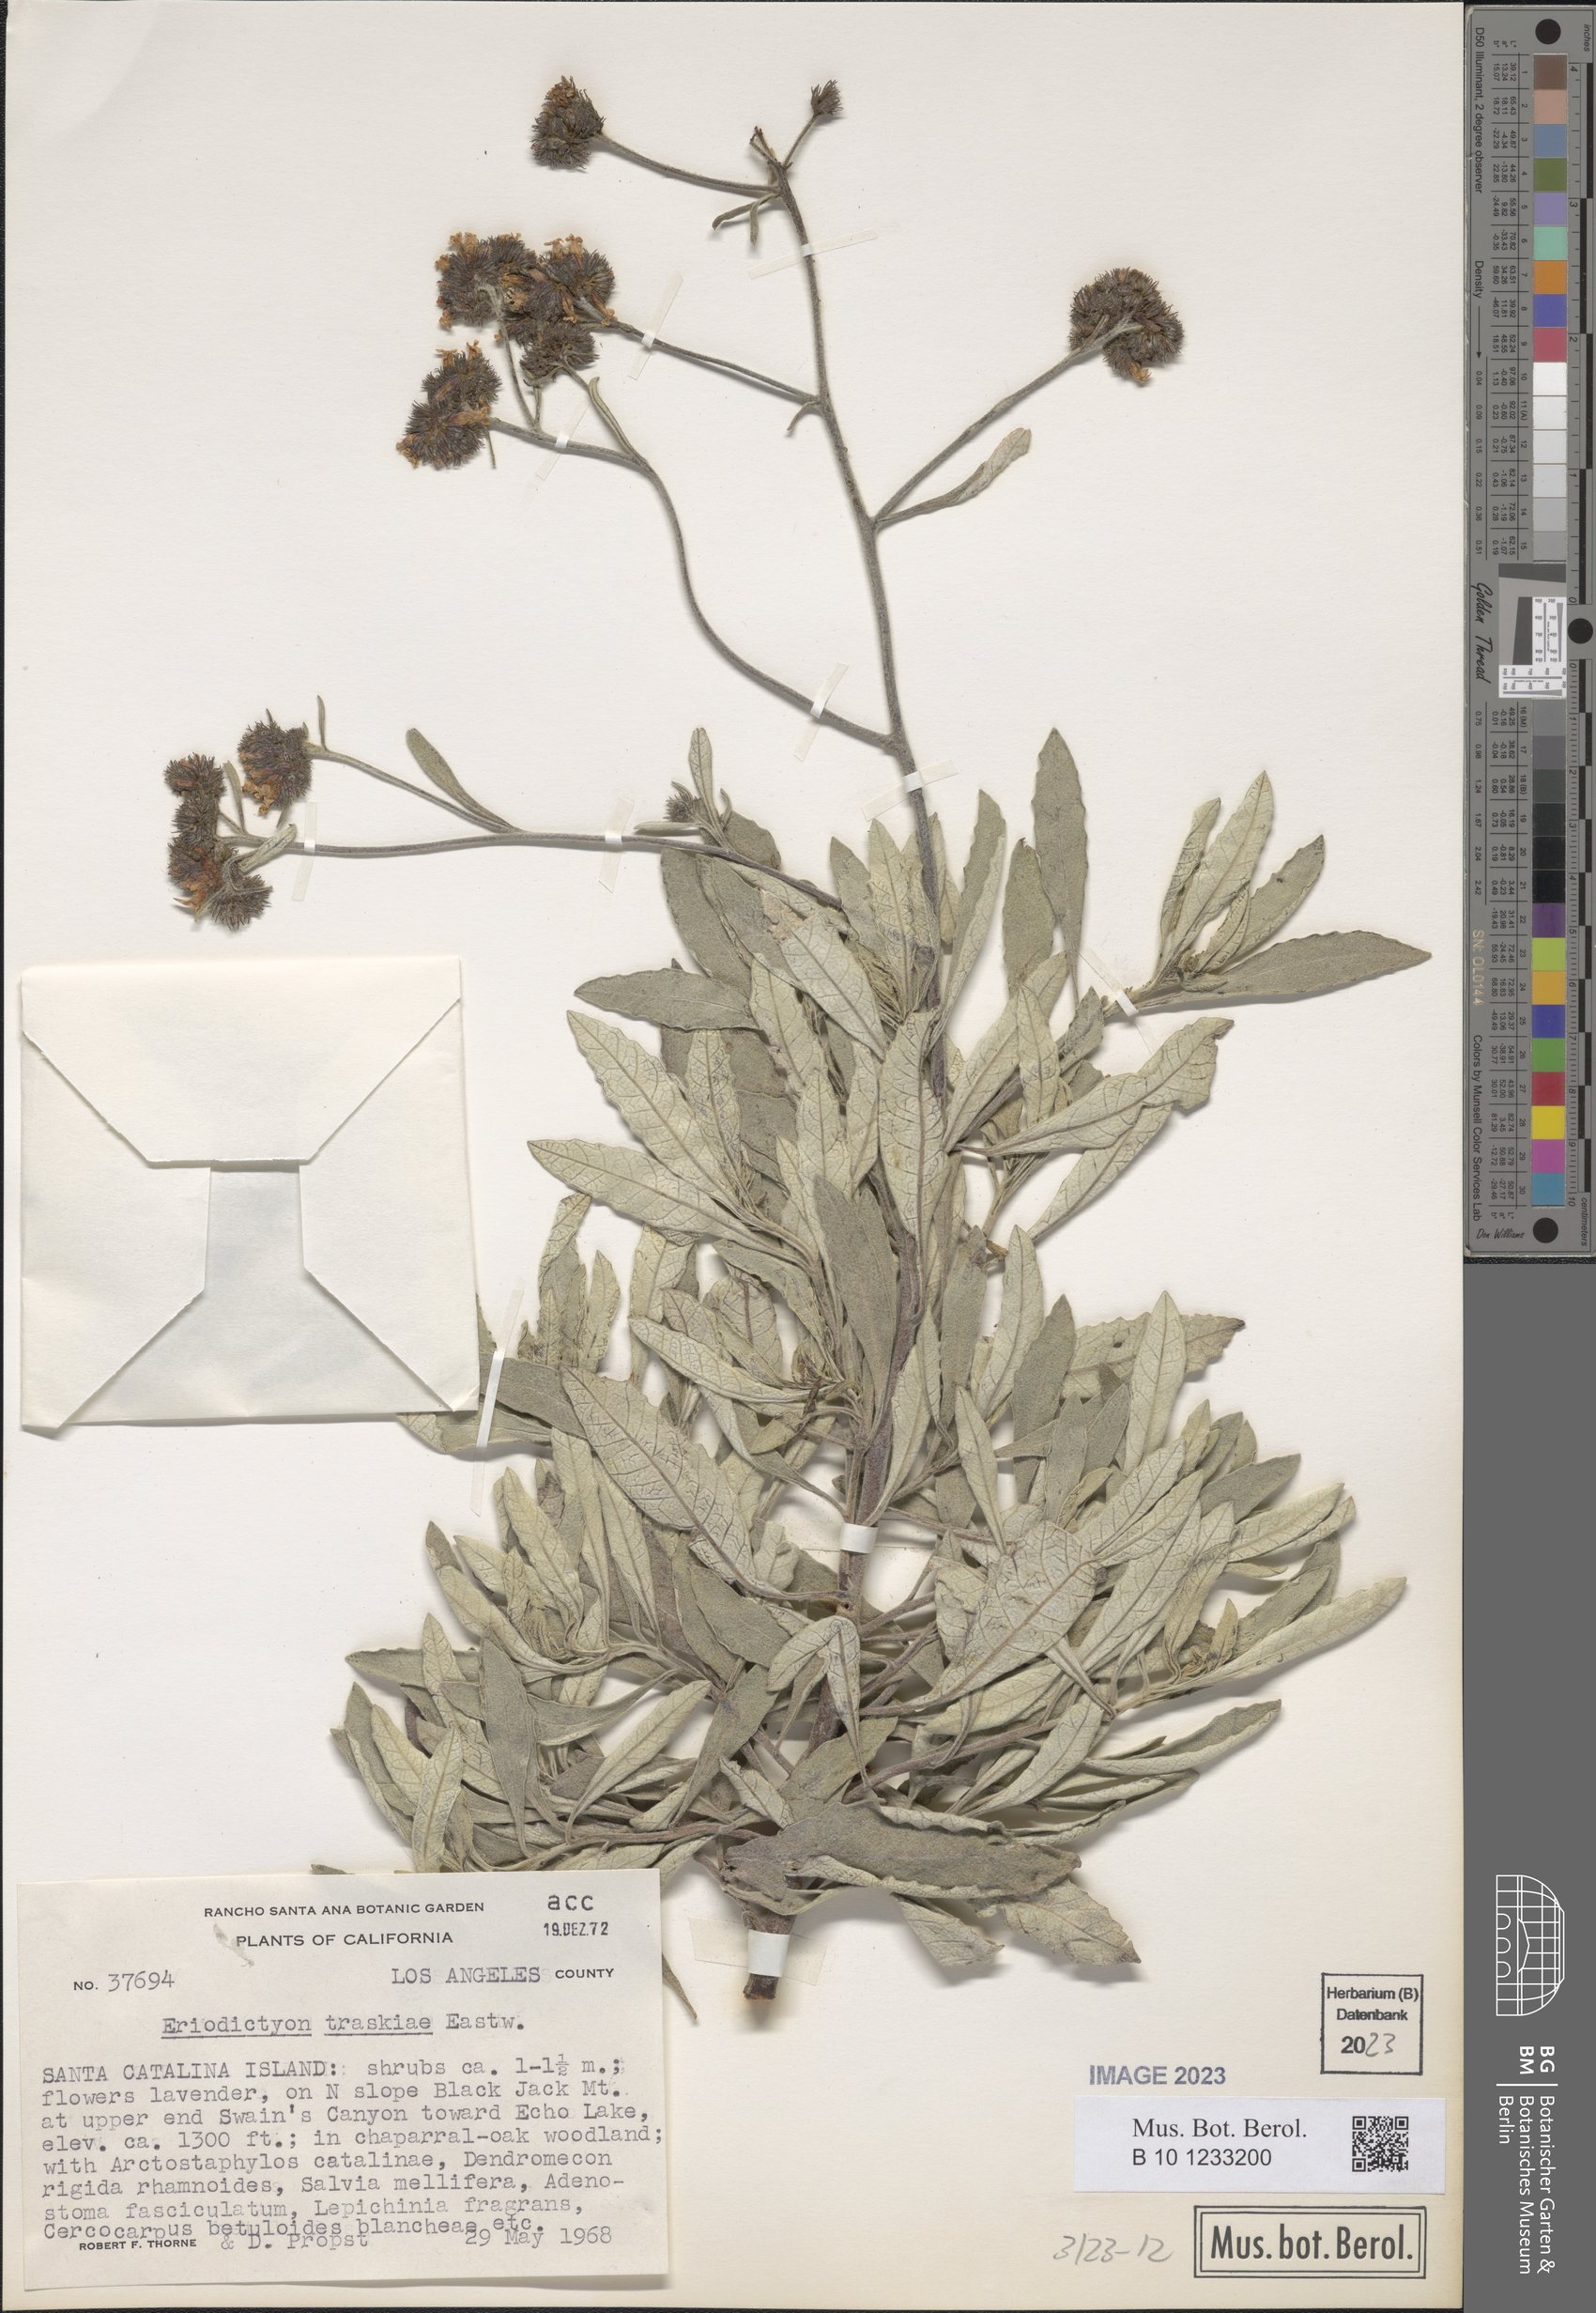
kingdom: Plantae
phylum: Tracheophyta
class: Magnoliopsida
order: Boraginales
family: Namaceae
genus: Eriodictyon
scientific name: Eriodictyon traskiae
